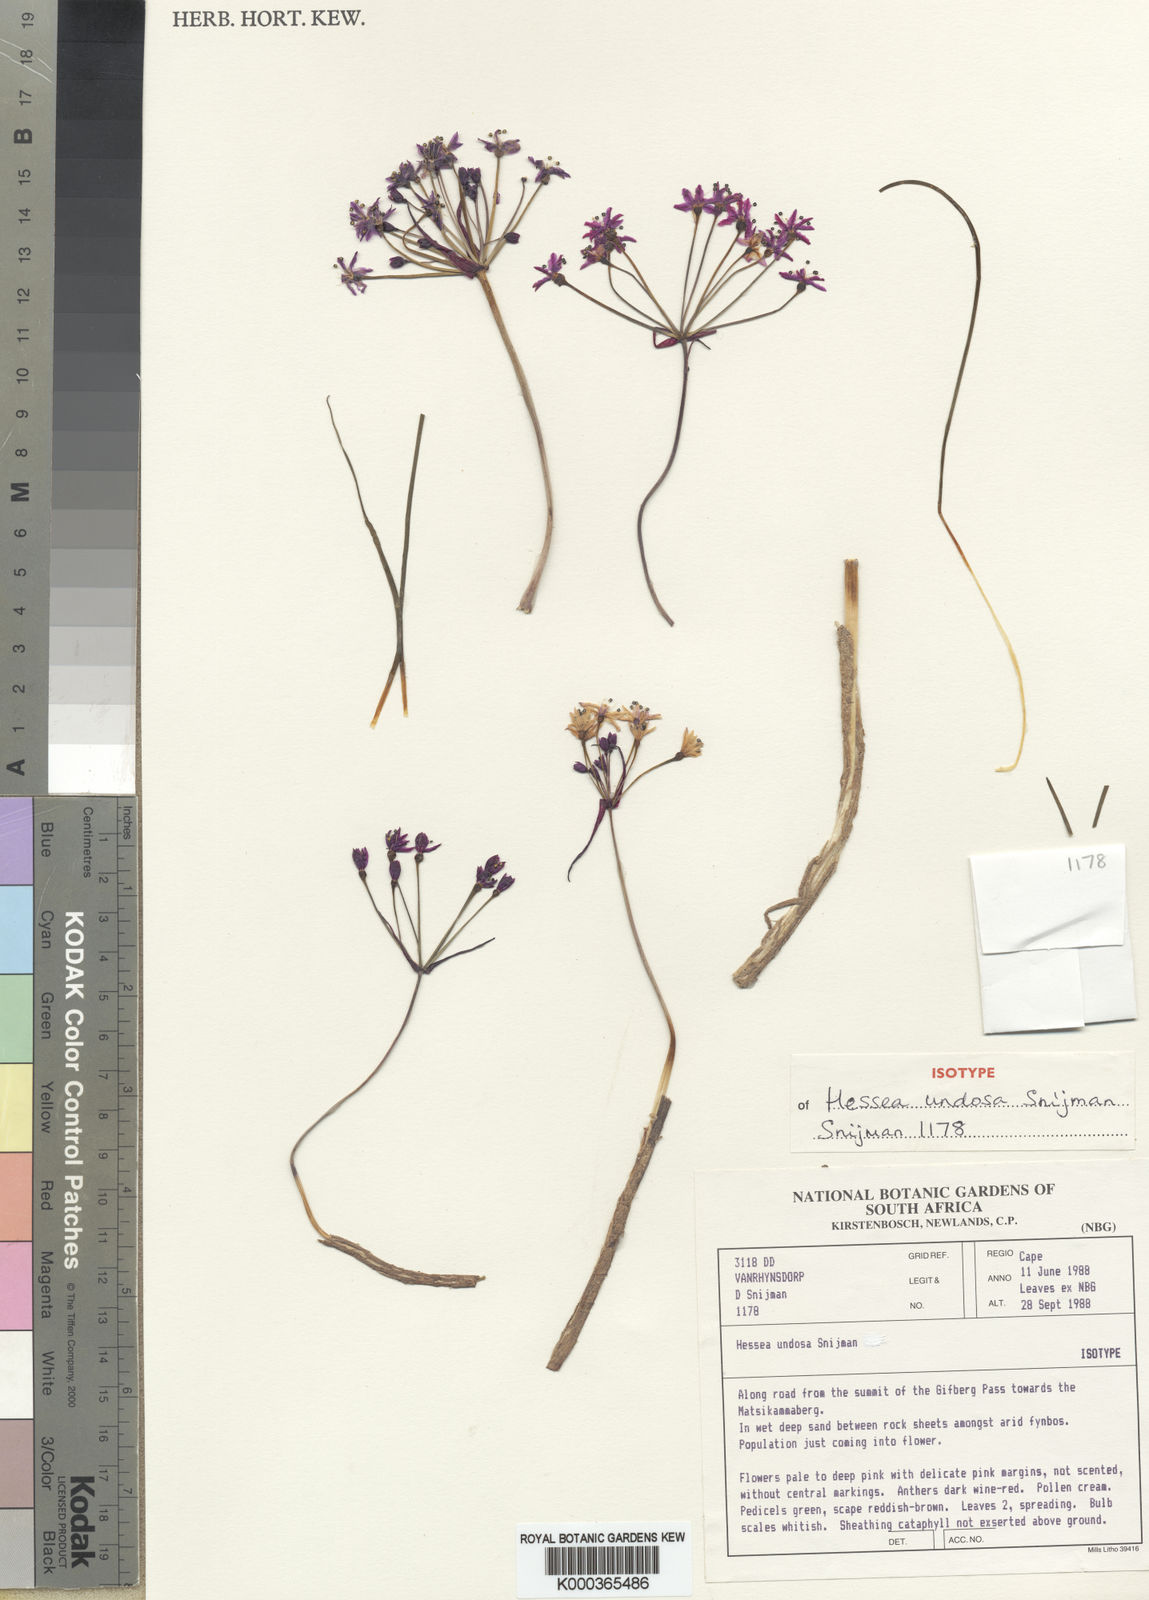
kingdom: Plantae
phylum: Tracheophyta
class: Liliopsida
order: Asparagales
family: Amaryllidaceae
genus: Hessea
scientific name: Hessea undosa
